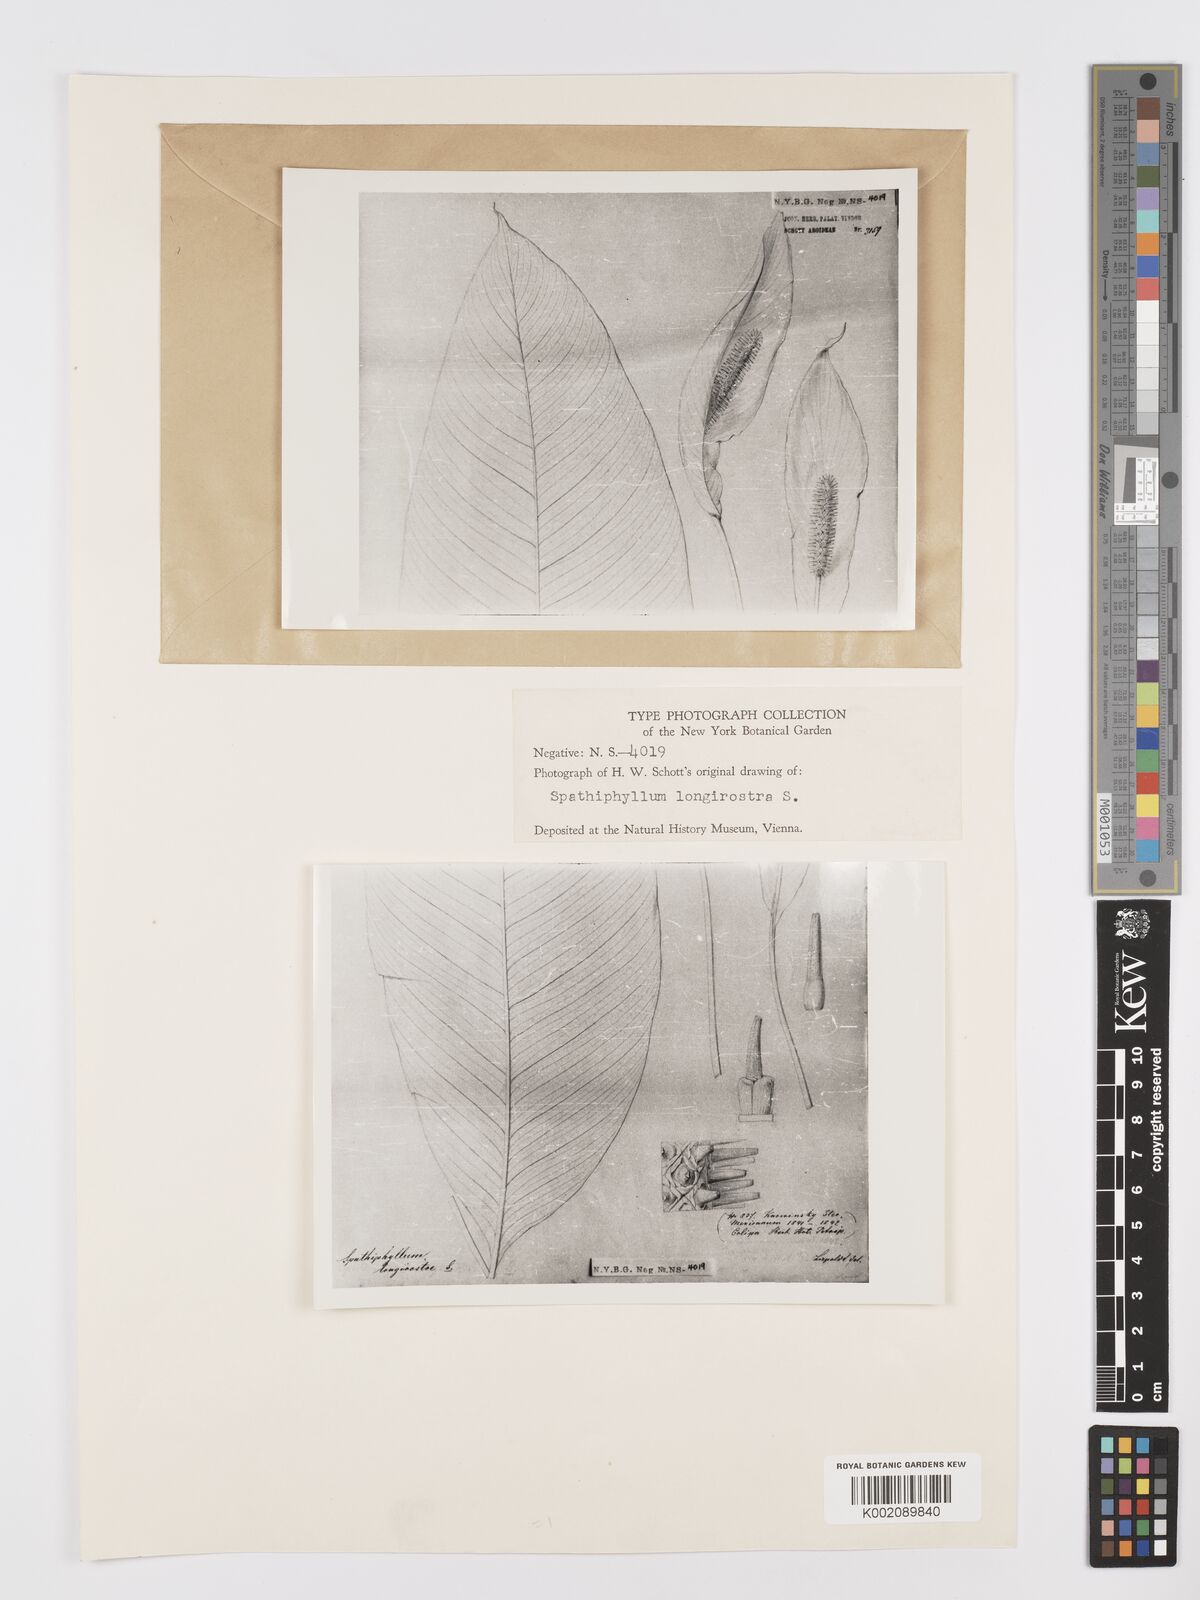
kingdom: Plantae
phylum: Tracheophyta
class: Liliopsida
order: Alismatales
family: Araceae
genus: Spathiphyllum
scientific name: Spathiphyllum cochlearispathum
